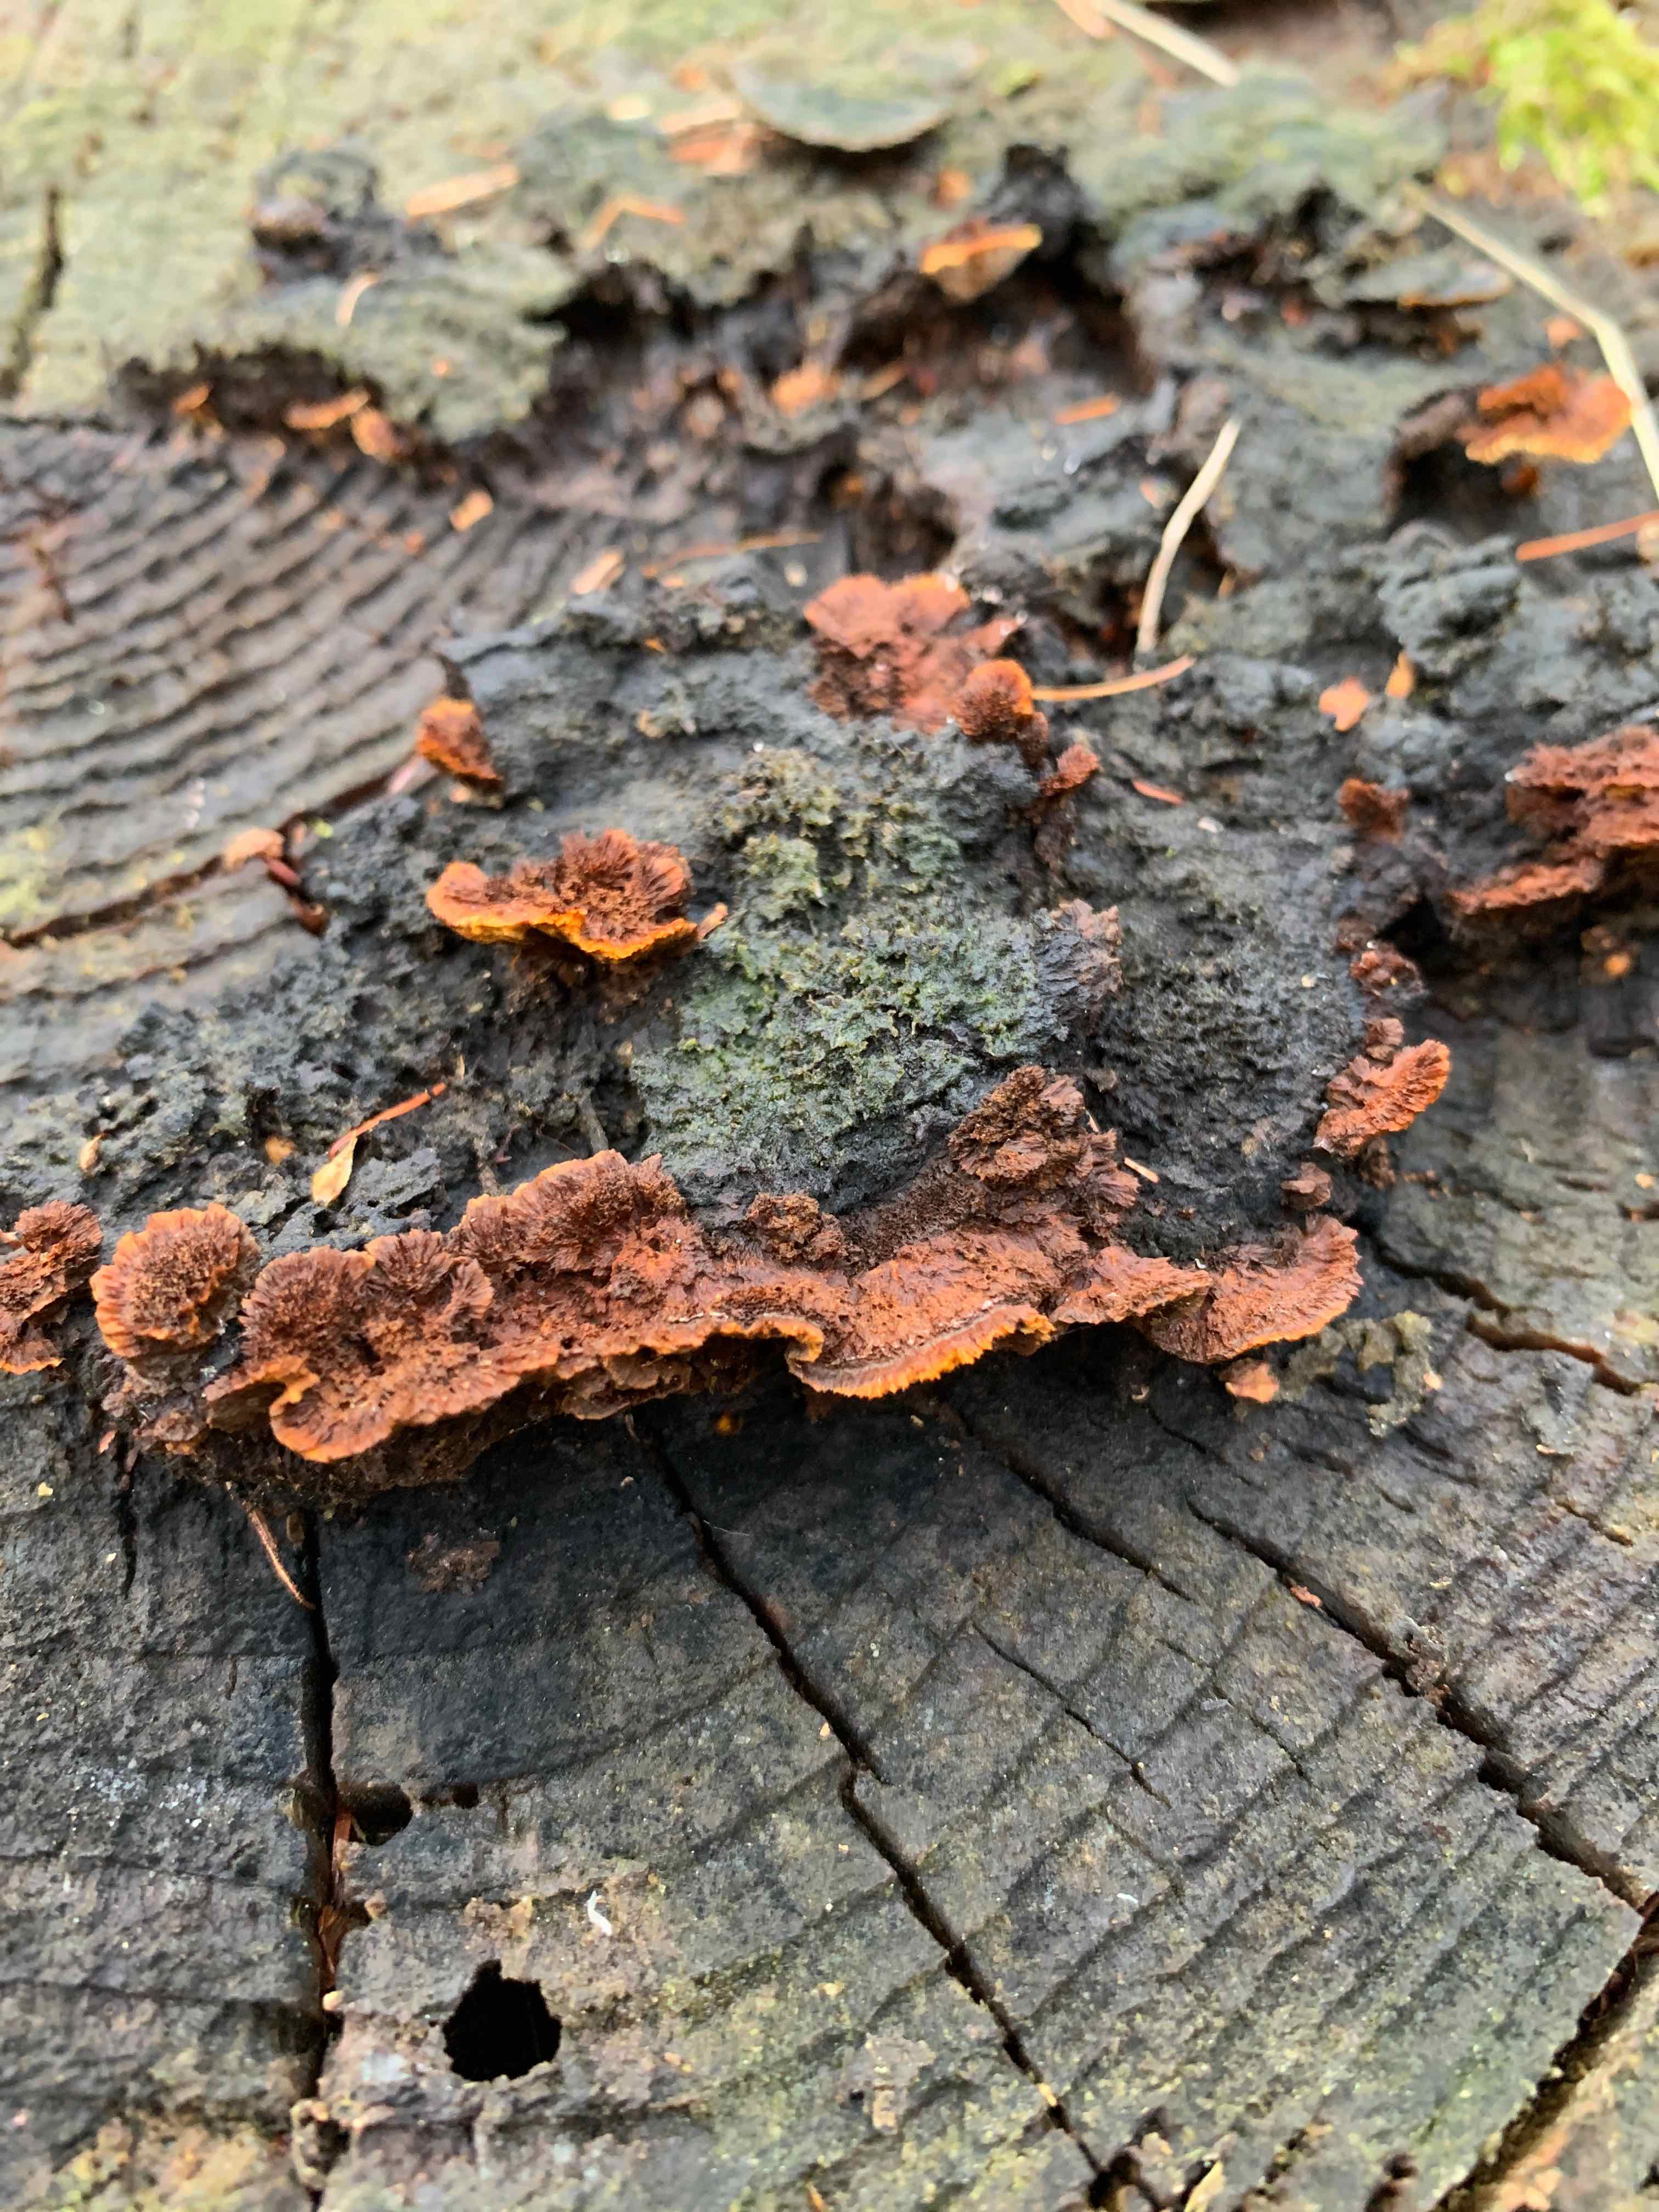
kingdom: Fungi
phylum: Basidiomycota
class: Agaricomycetes
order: Gloeophyllales
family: Gloeophyllaceae
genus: Gloeophyllum
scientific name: Gloeophyllum sepiarium
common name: fyrre-korkhat
